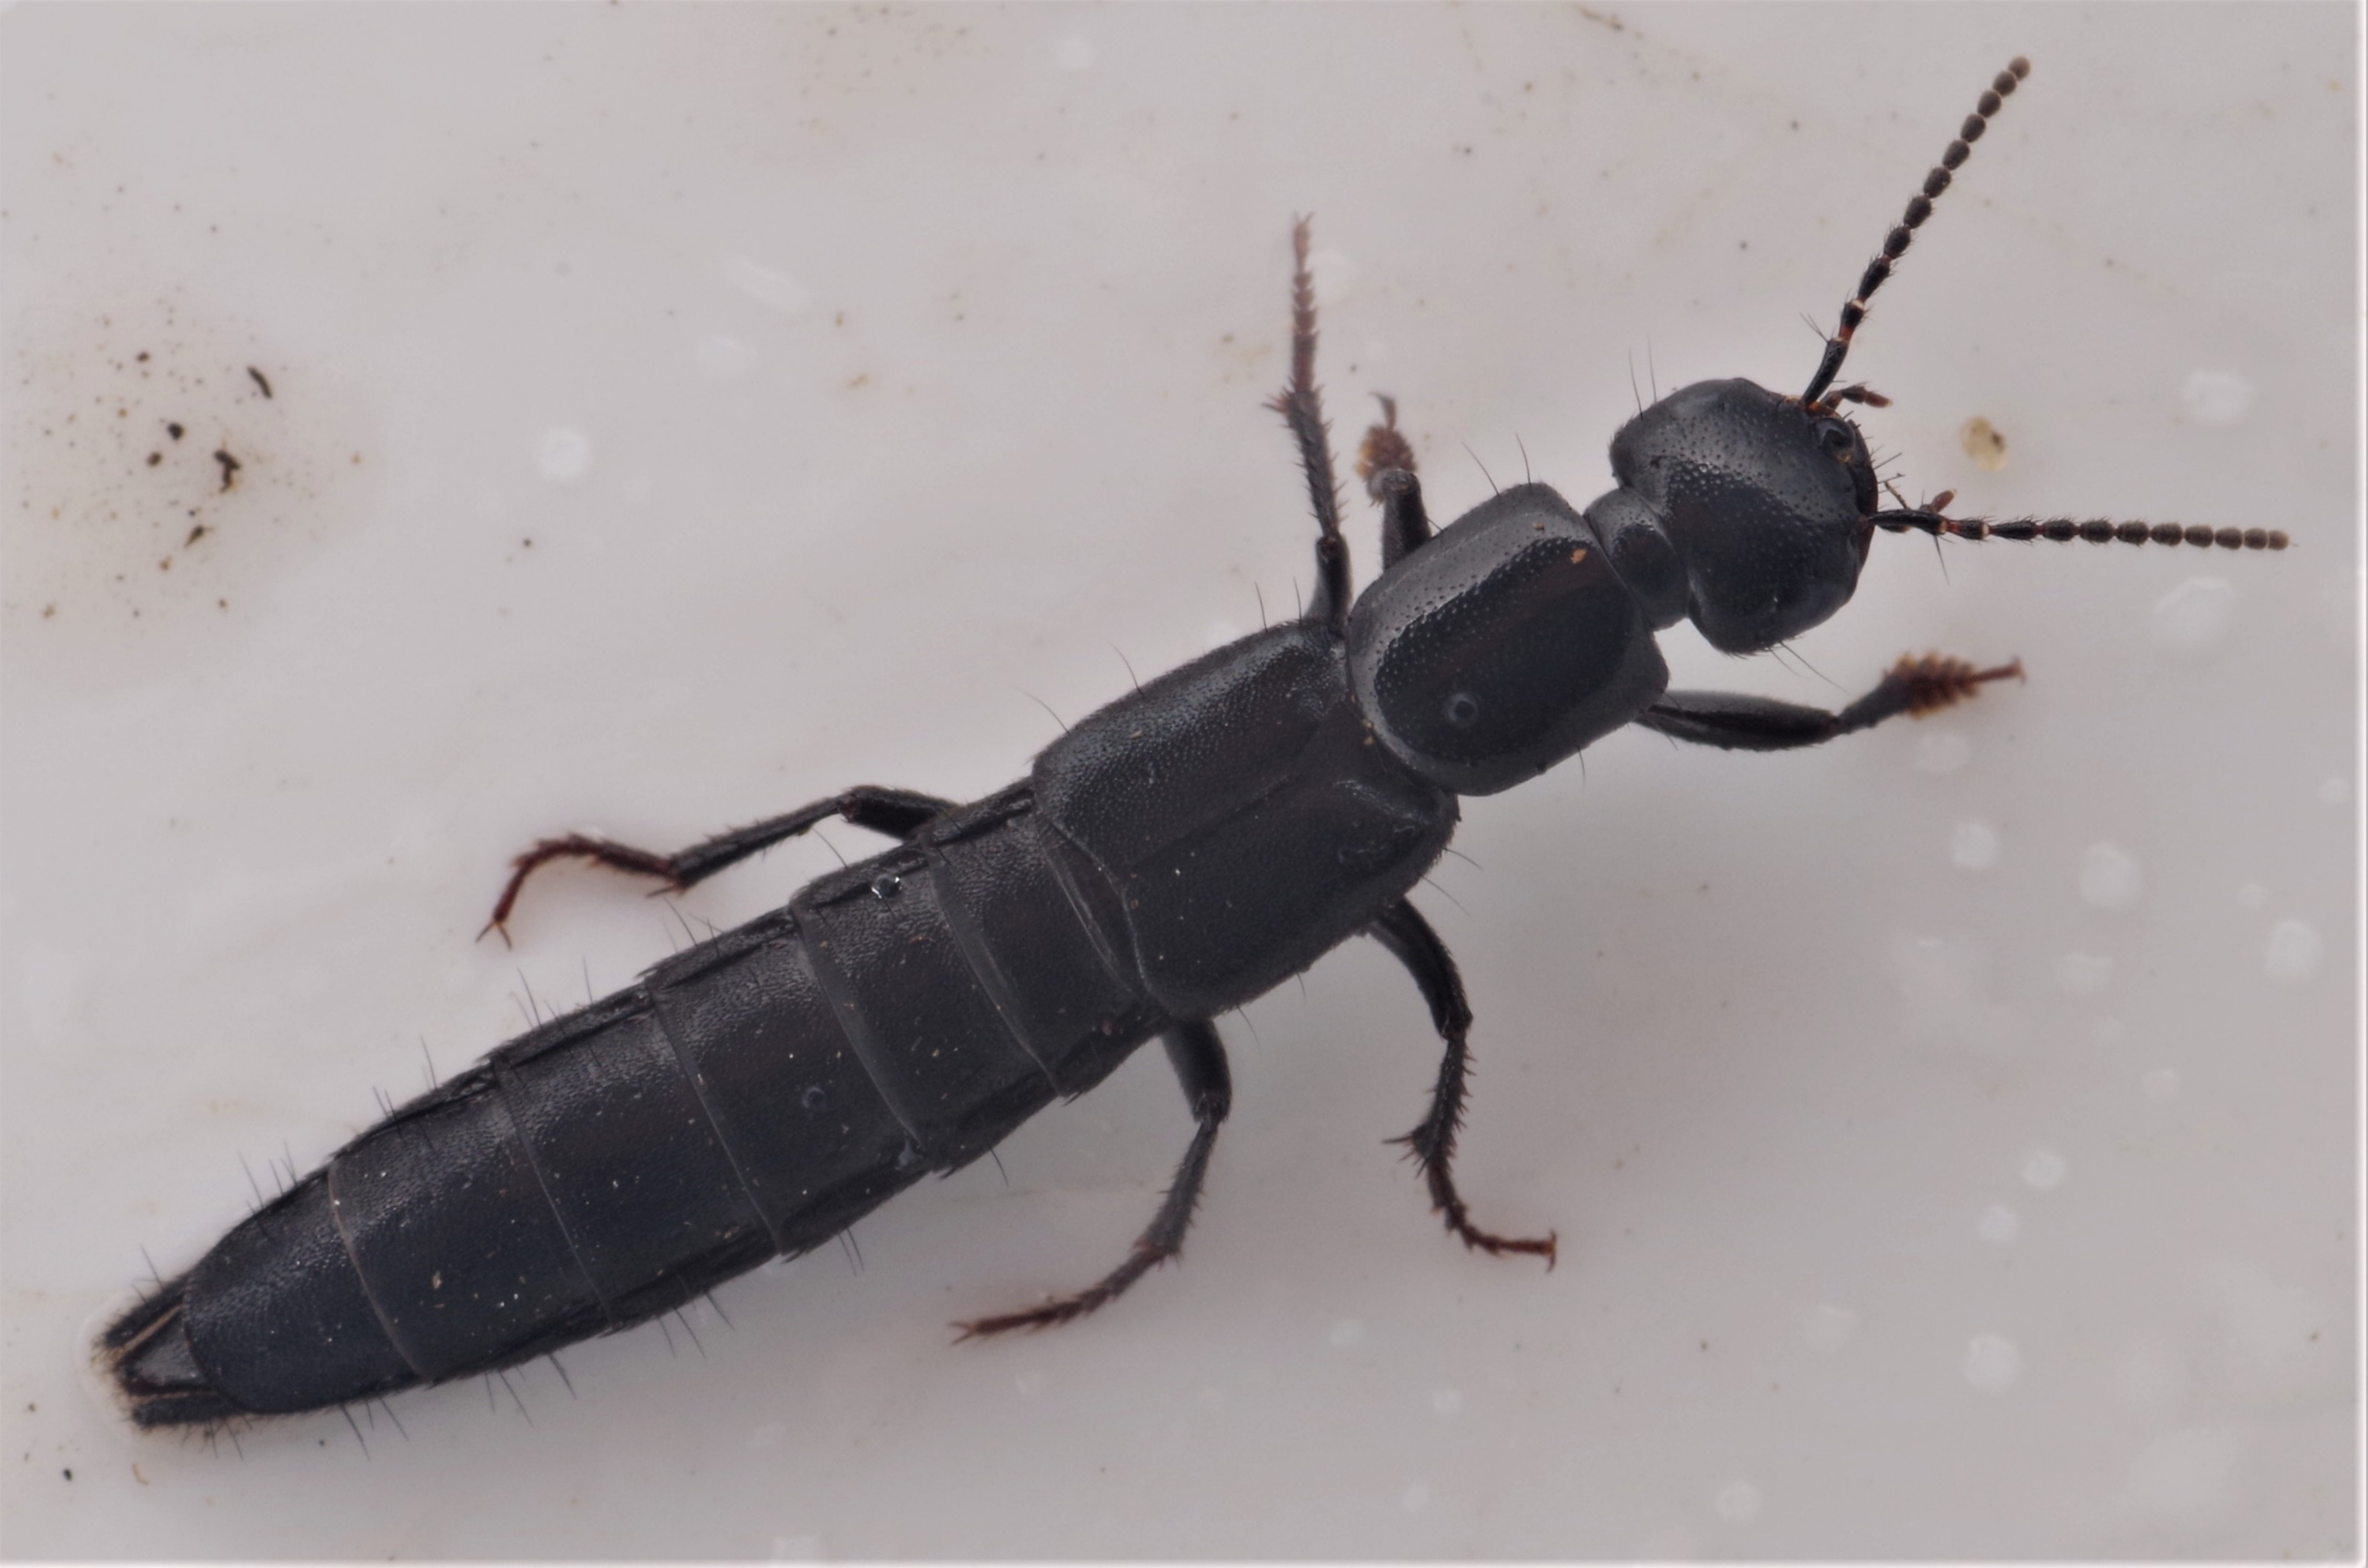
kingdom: Animalia
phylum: Arthropoda
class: Insecta
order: Coleoptera
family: Staphylinidae
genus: Tasgius
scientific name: Tasgius ater
